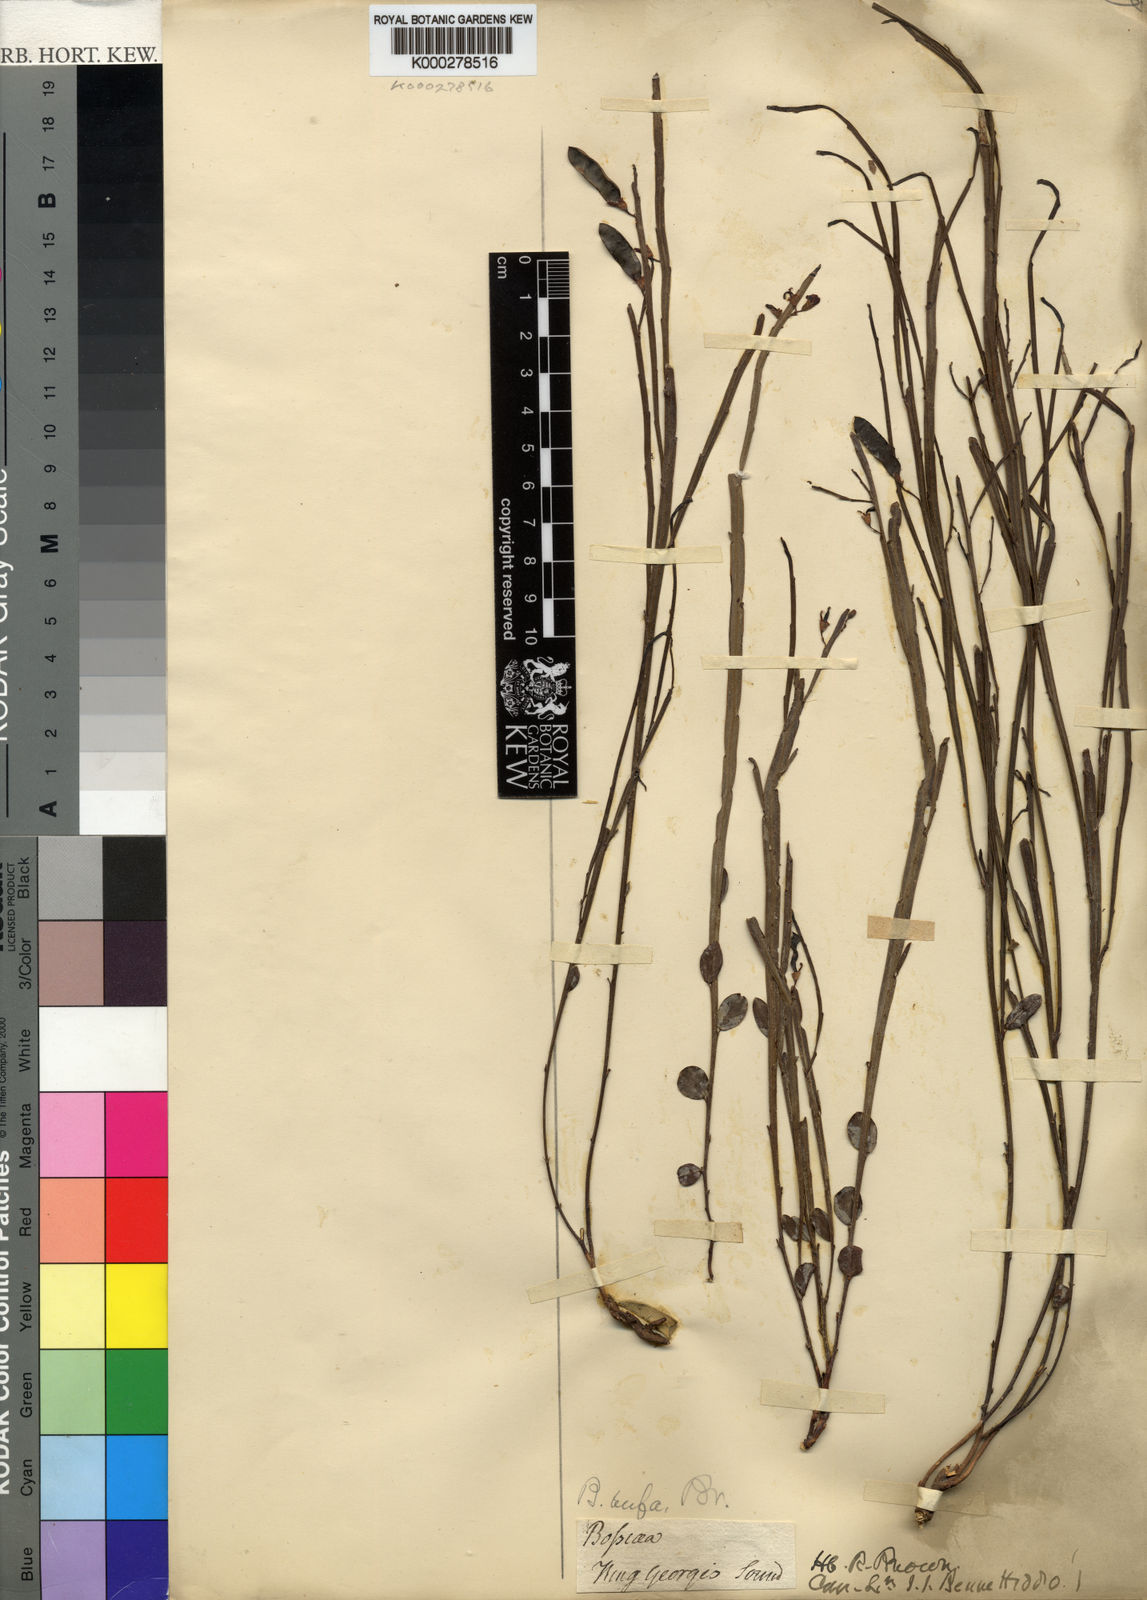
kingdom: Plantae
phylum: Tracheophyta
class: Magnoliopsida
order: Fabales
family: Fabaceae
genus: Bossiaea
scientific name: Bossiaea rufa
